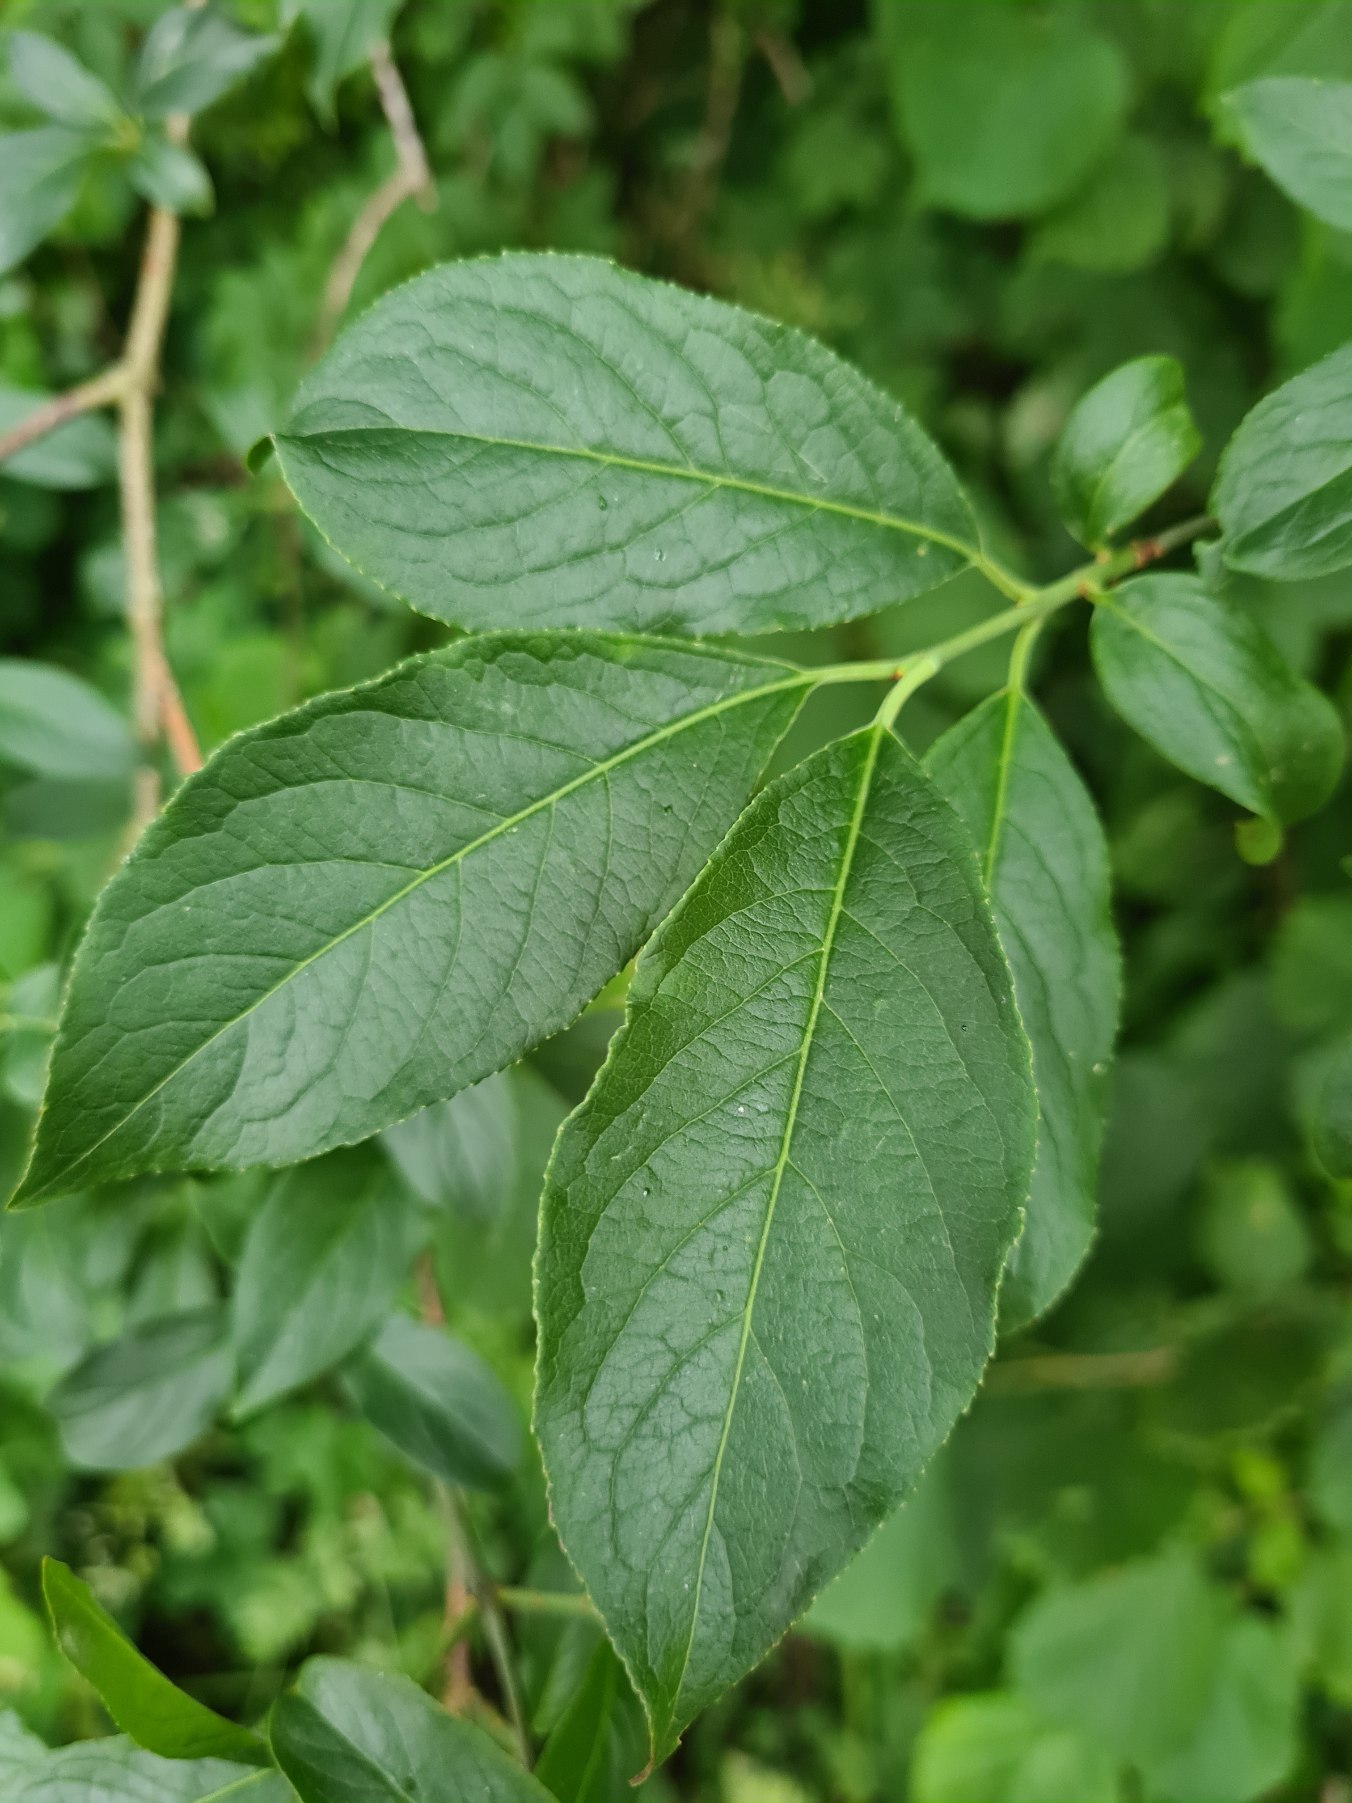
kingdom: Plantae
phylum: Tracheophyta
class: Magnoliopsida
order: Celastrales
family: Celastraceae
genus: Euonymus
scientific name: Euonymus europaeus
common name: Benved
